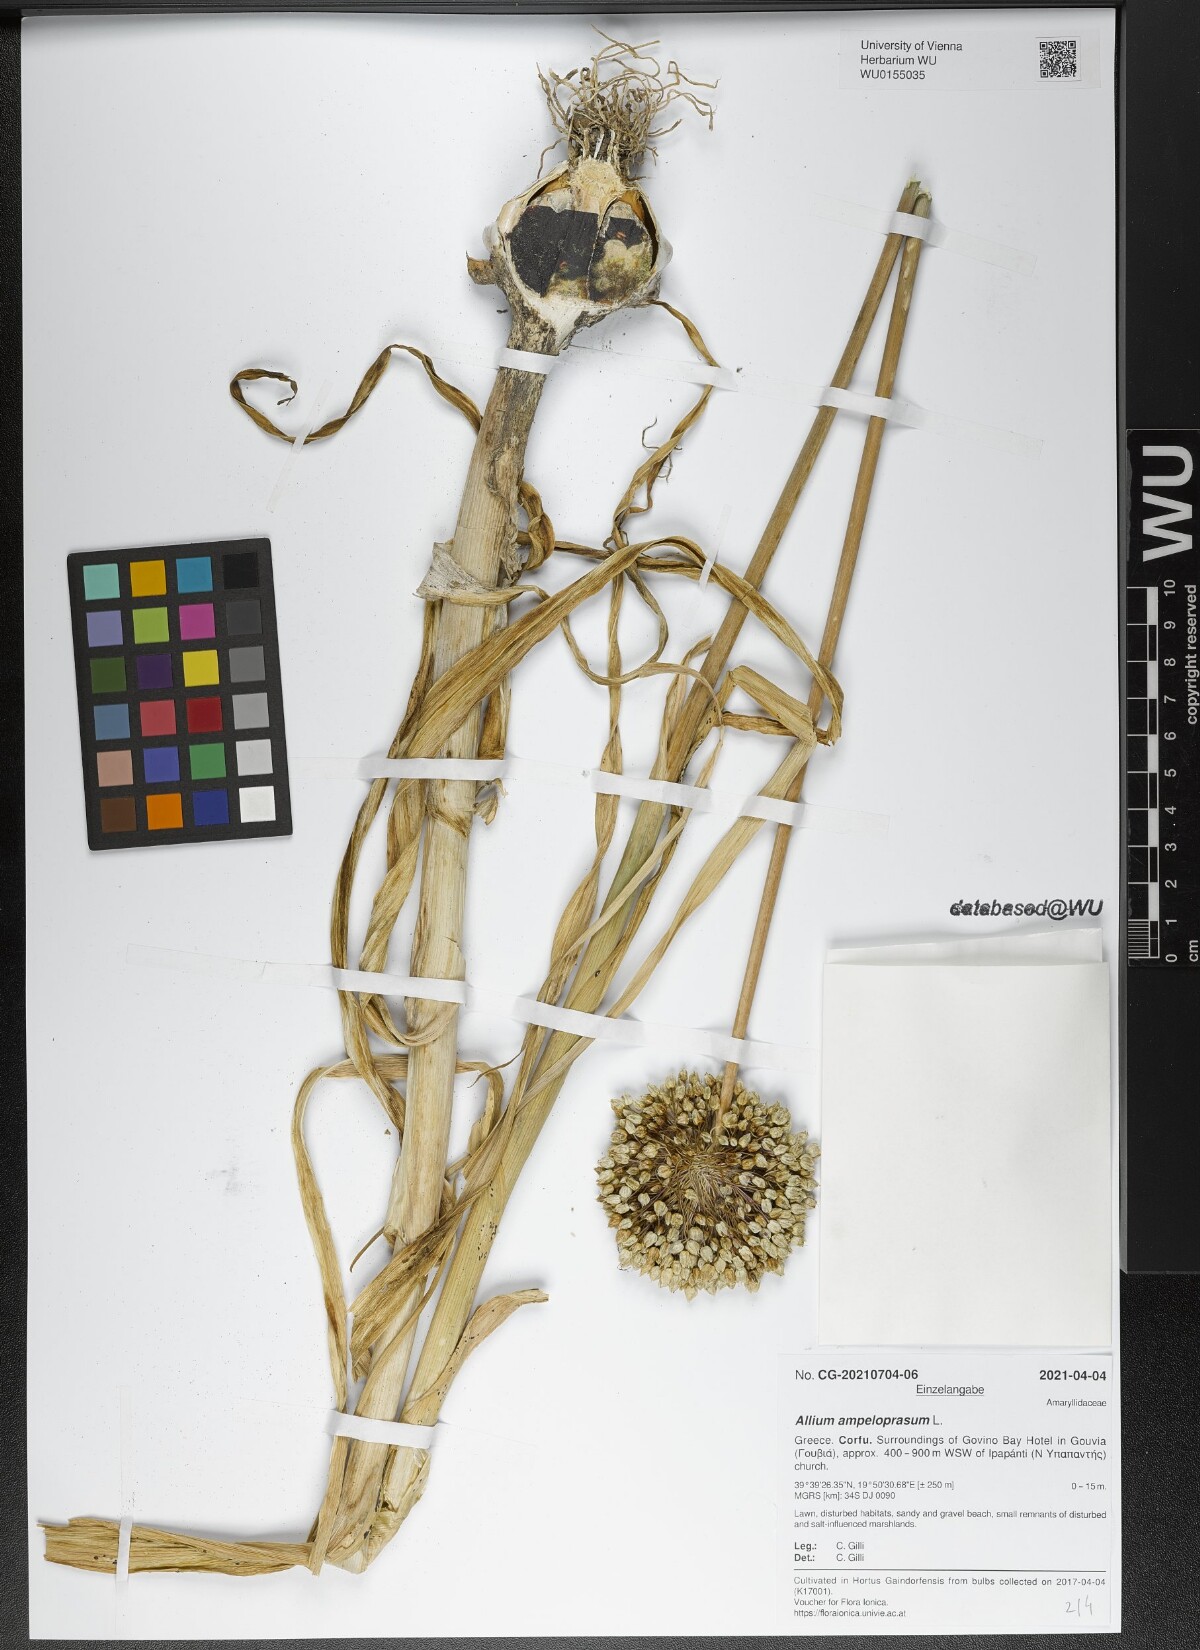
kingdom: Plantae
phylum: Tracheophyta
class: Liliopsida
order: Asparagales
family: Amaryllidaceae
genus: Allium
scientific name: Allium ampeloprasum
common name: Wild leek
